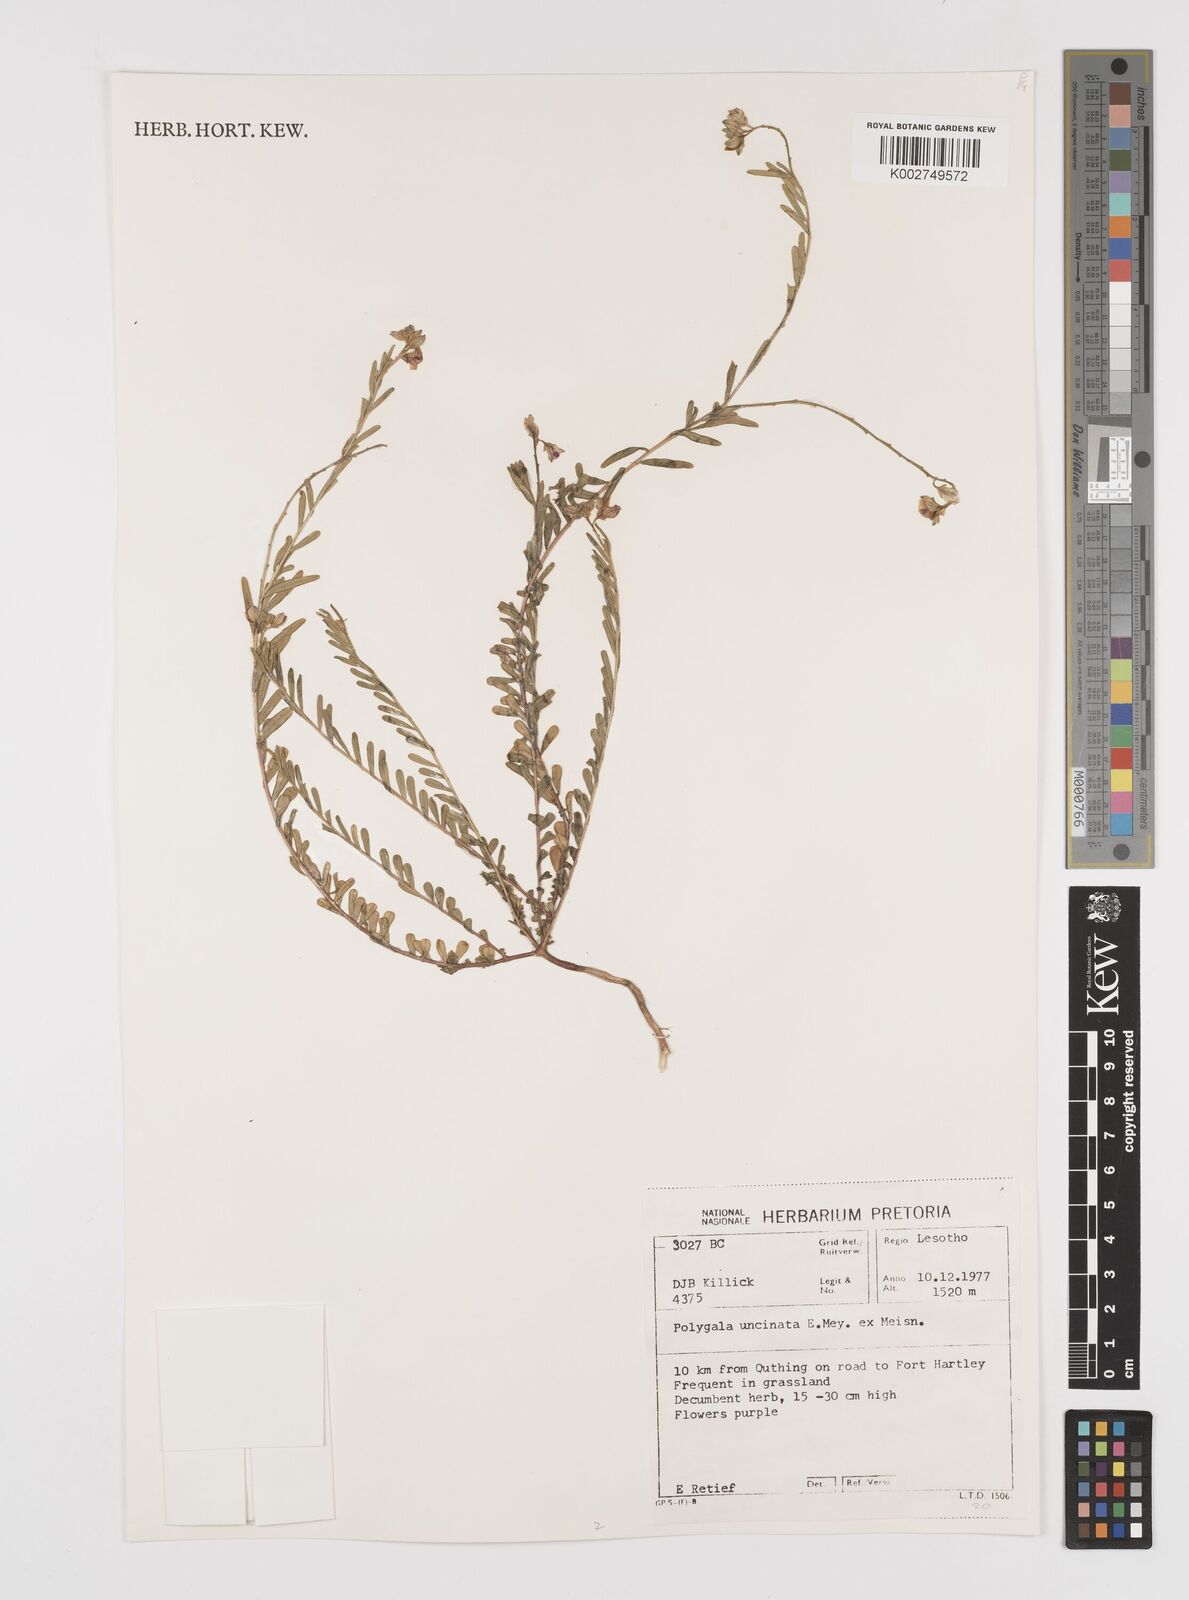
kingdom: Plantae
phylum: Tracheophyta
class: Magnoliopsida
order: Fabales
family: Polygalaceae
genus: Muraltia
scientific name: Muraltia alopecuroides
